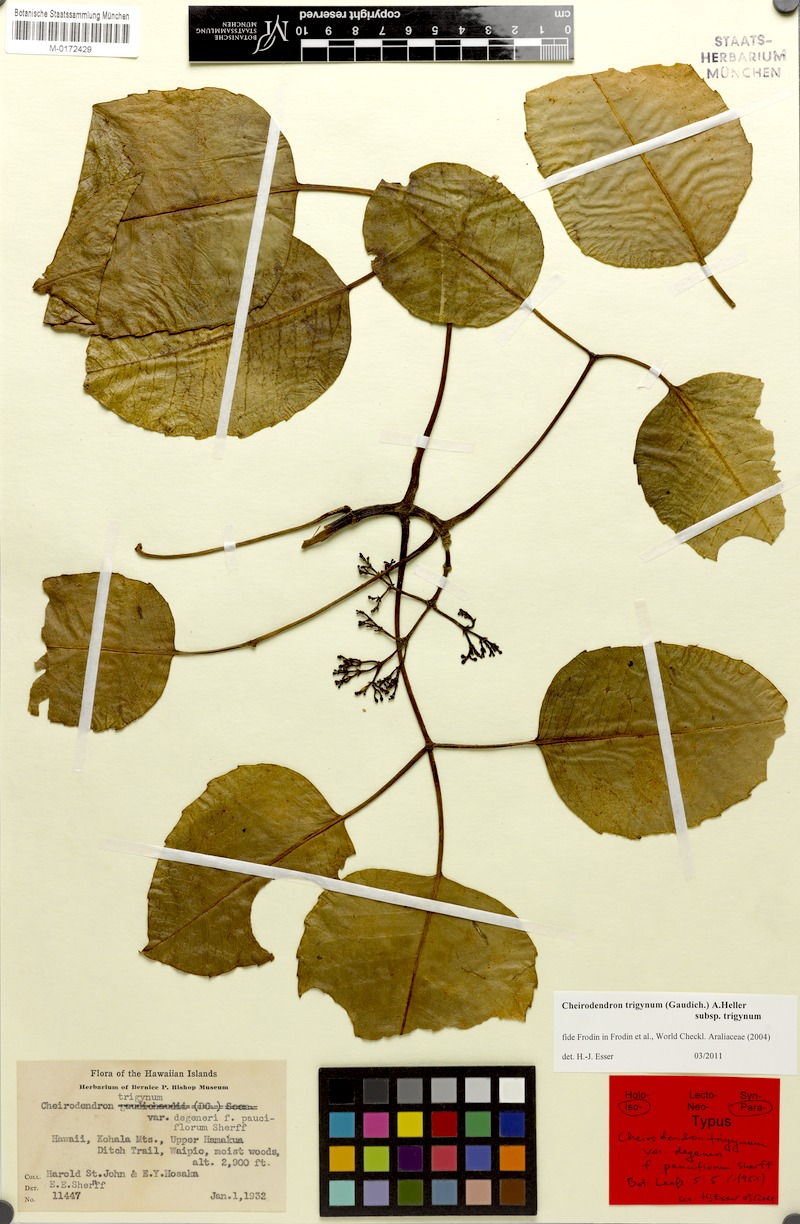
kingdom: Plantae
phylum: Tracheophyta
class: Magnoliopsida
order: Apiales
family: Araliaceae
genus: Cheirodendron
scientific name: Cheirodendron trigynum
